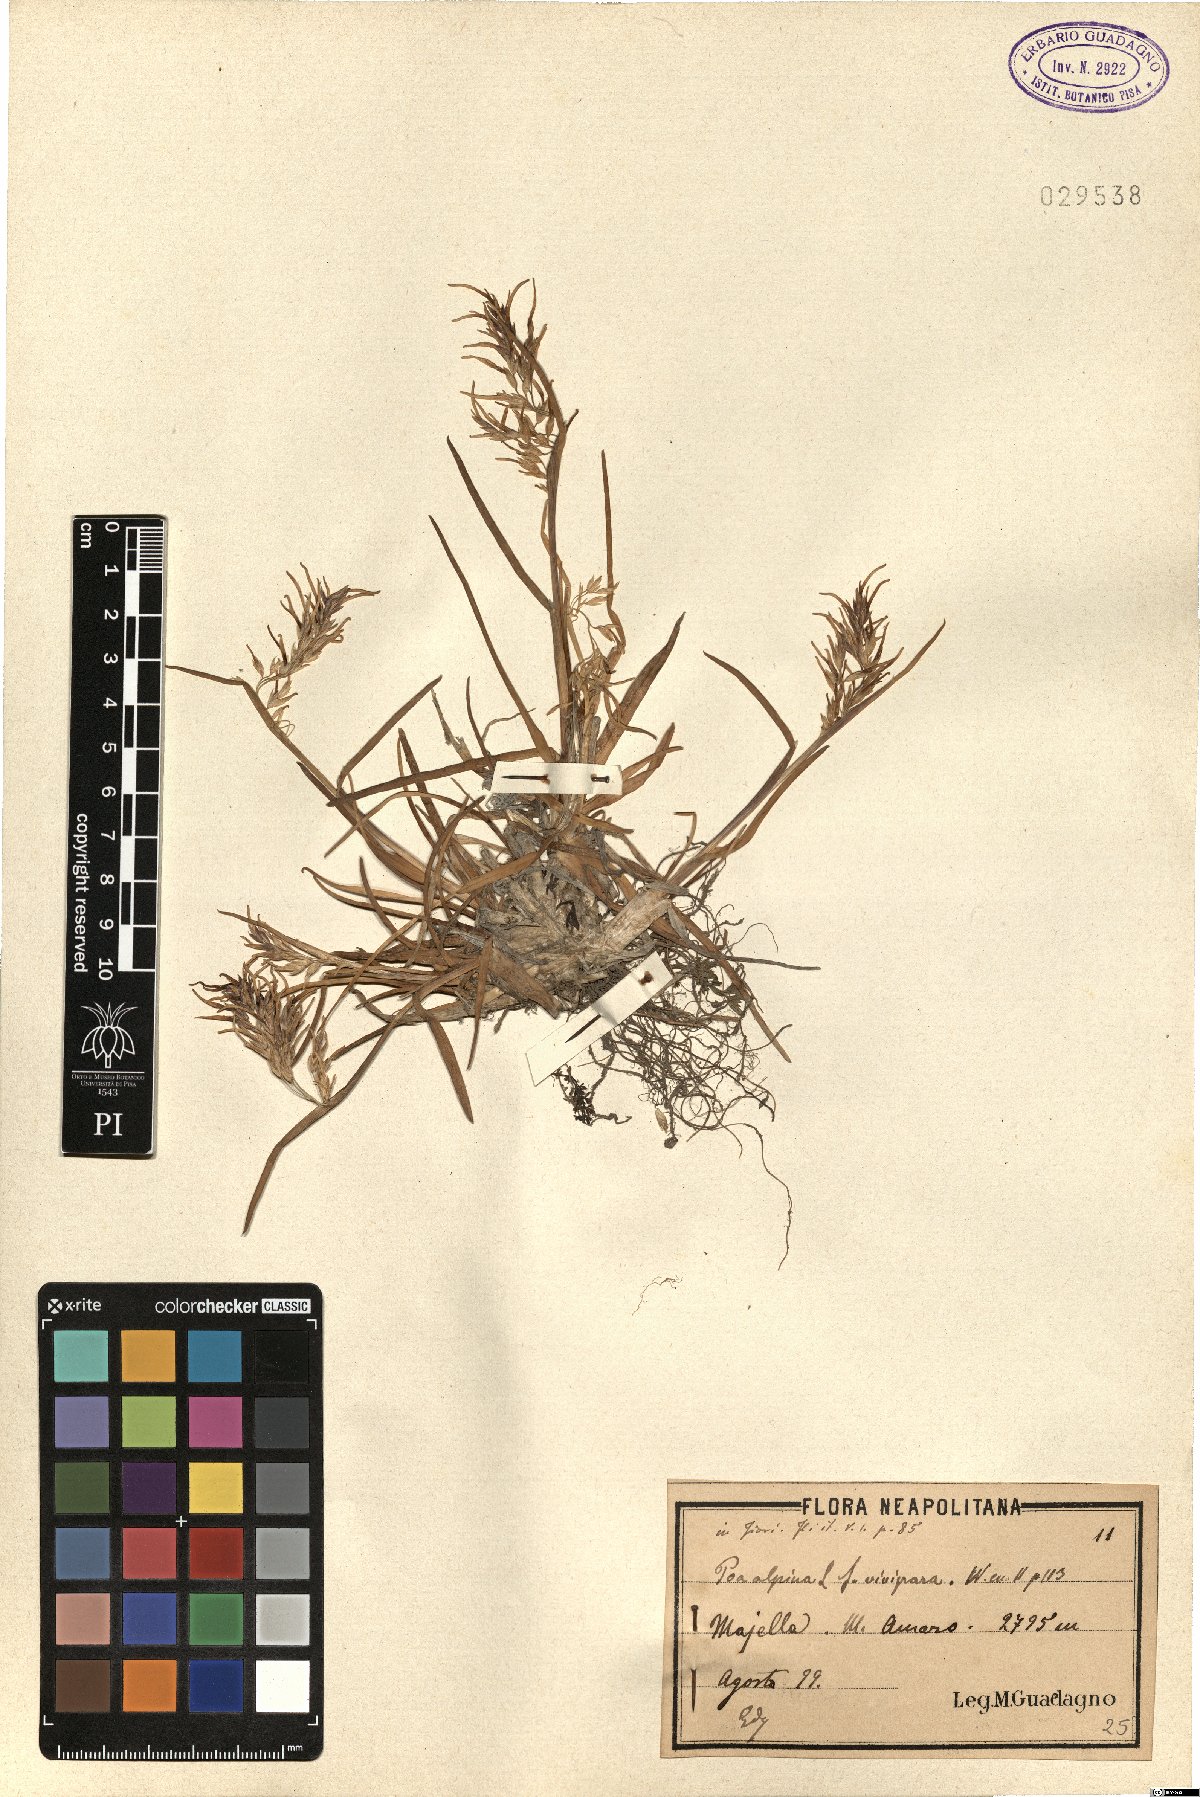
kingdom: Plantae
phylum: Tracheophyta
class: Liliopsida
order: Poales
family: Poaceae
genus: Poa
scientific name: Poa alpina
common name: Alpine bluegrass
